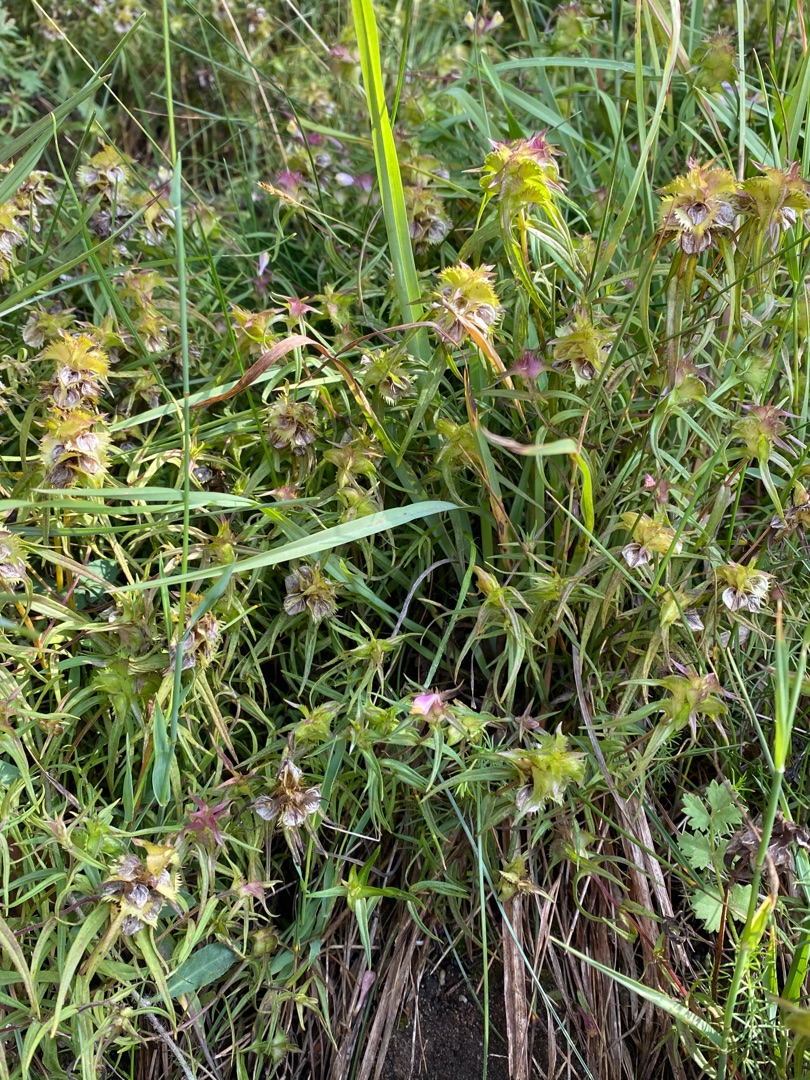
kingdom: Plantae
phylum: Tracheophyta
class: Magnoliopsida
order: Lamiales
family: Orobanchaceae
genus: Melampyrum
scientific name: Melampyrum cristatum
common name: Kantet kohvede
